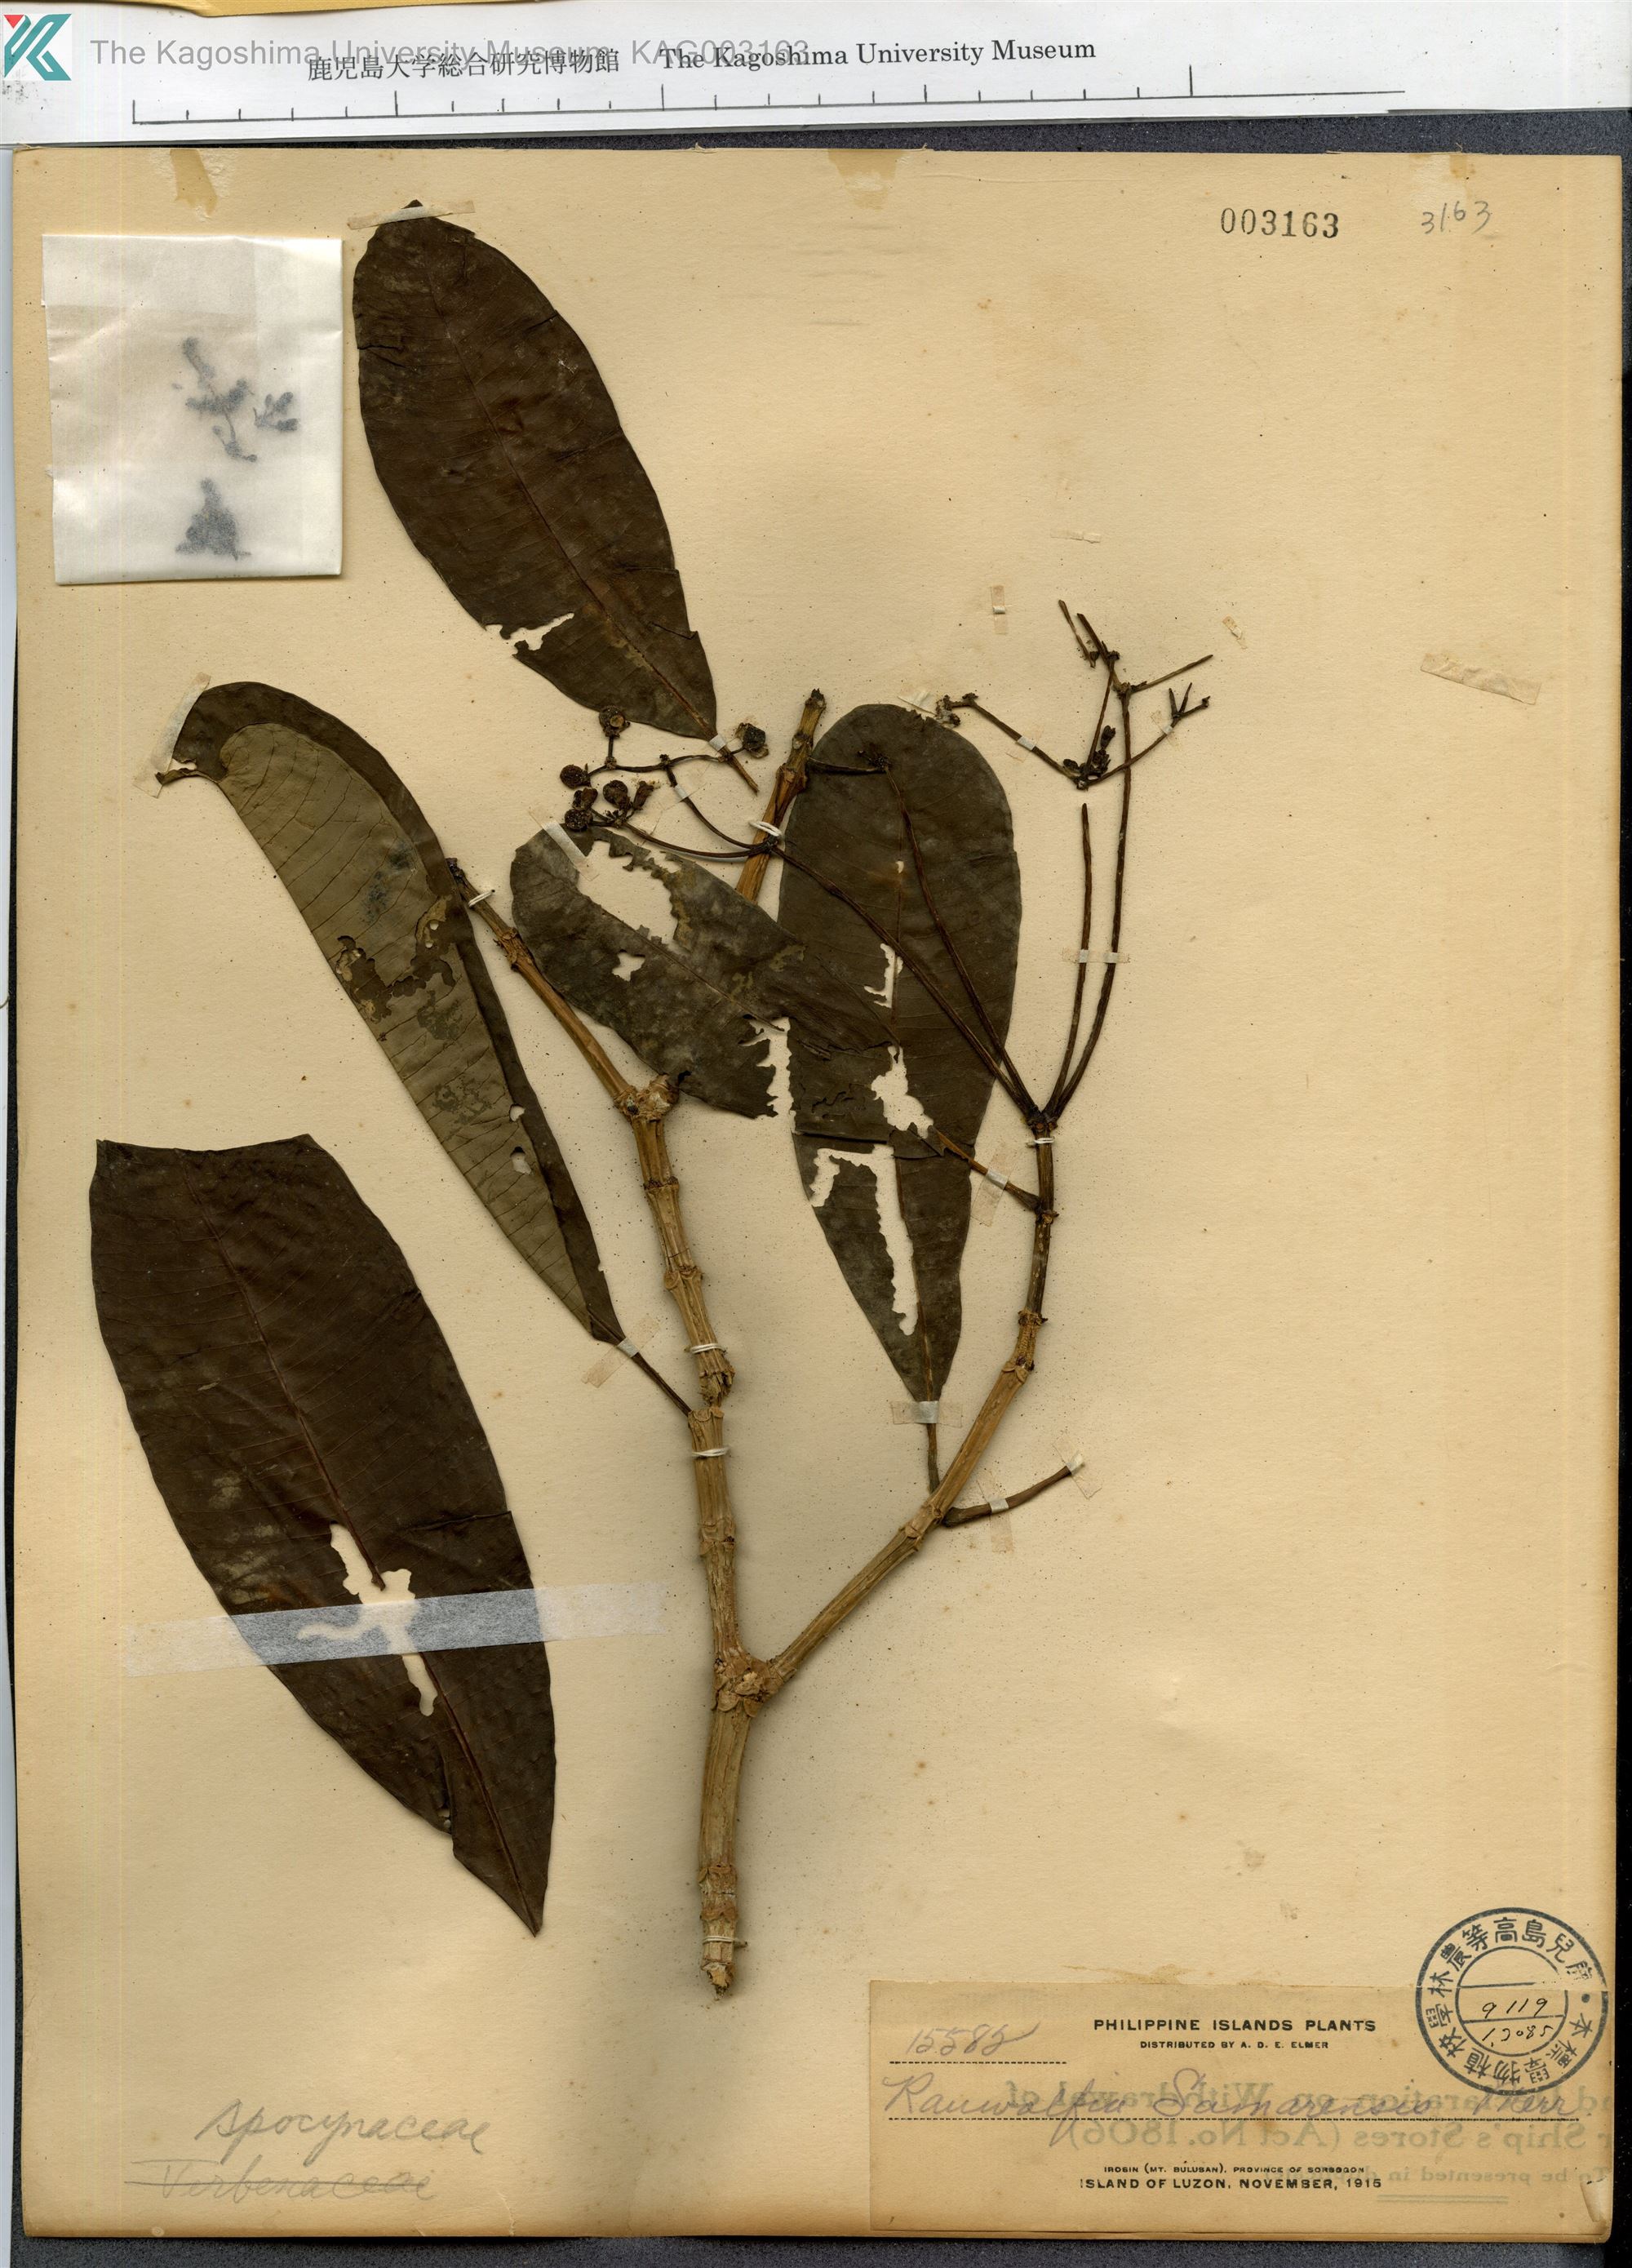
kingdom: Plantae
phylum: Tracheophyta
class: Magnoliopsida
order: Gentianales
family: Apocynaceae
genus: Rauvolfia
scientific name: Rauvolfia
